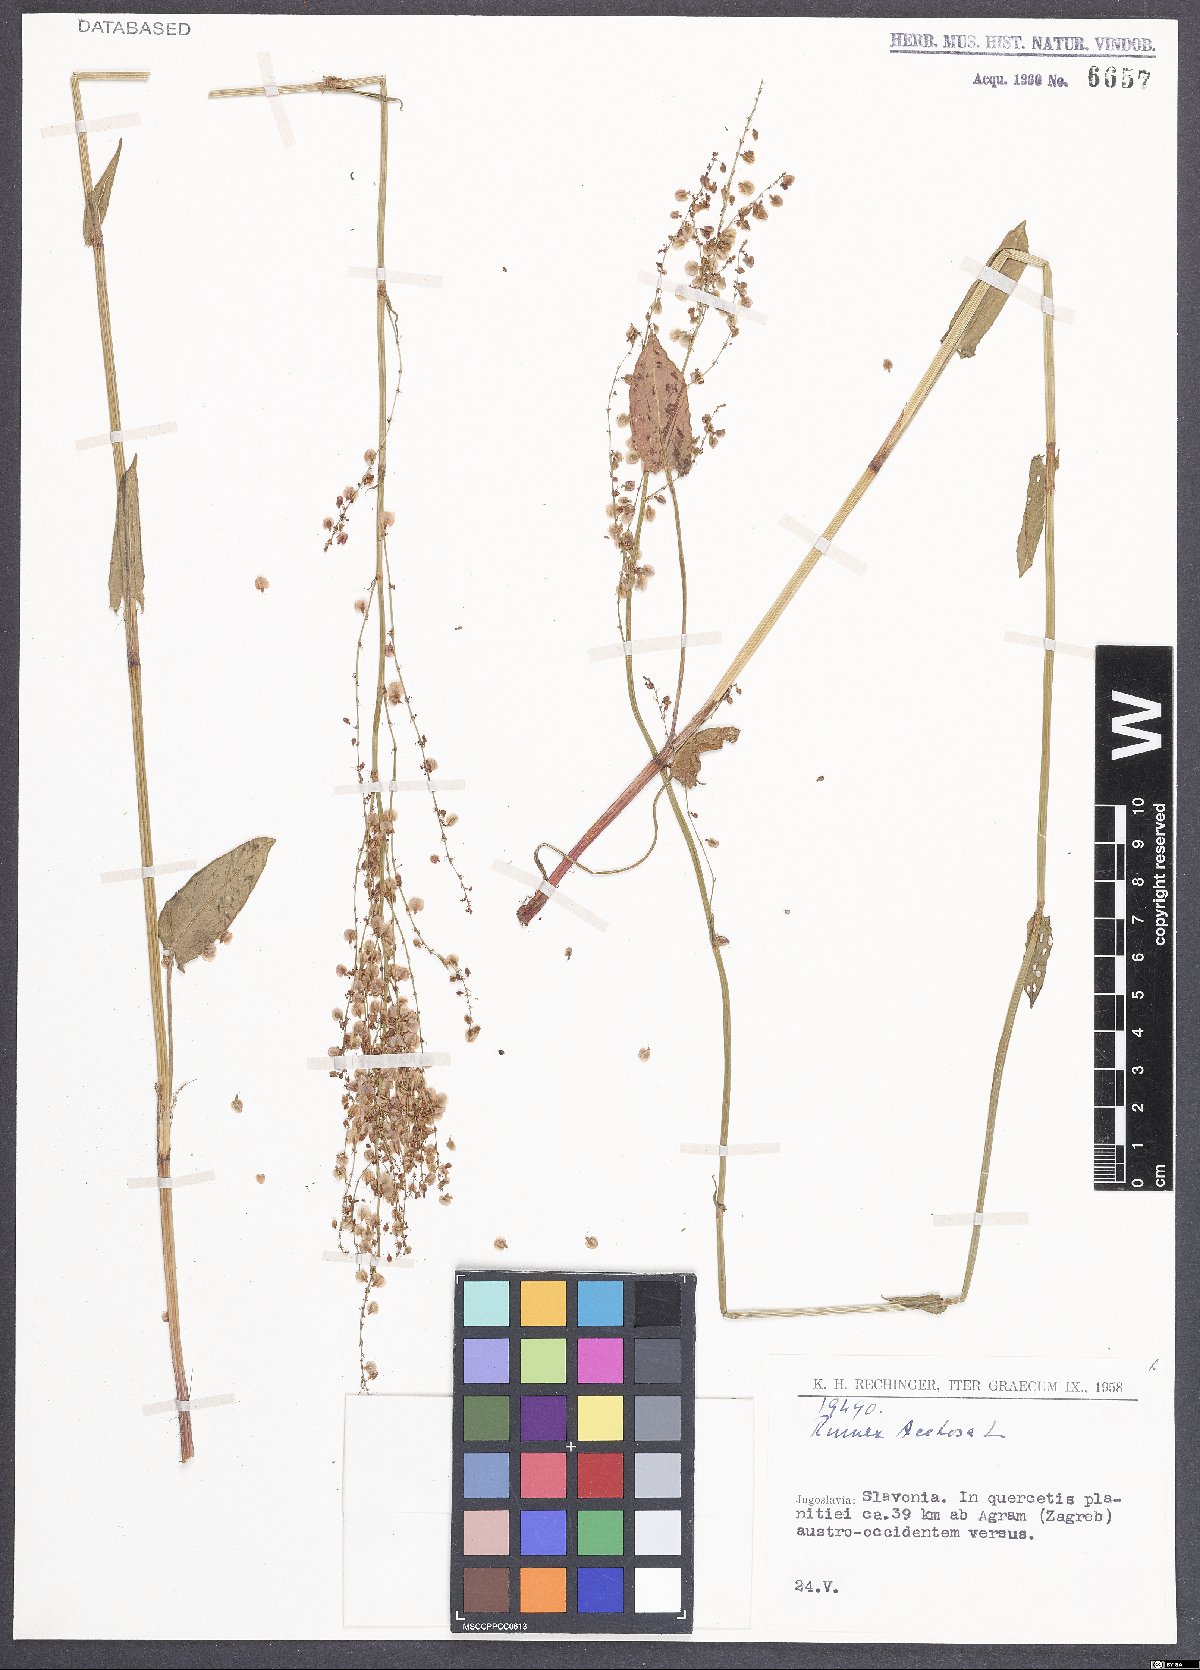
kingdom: Plantae
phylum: Tracheophyta
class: Magnoliopsida
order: Caryophyllales
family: Polygonaceae
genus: Rumex
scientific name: Rumex acetosa
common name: Garden sorrel
